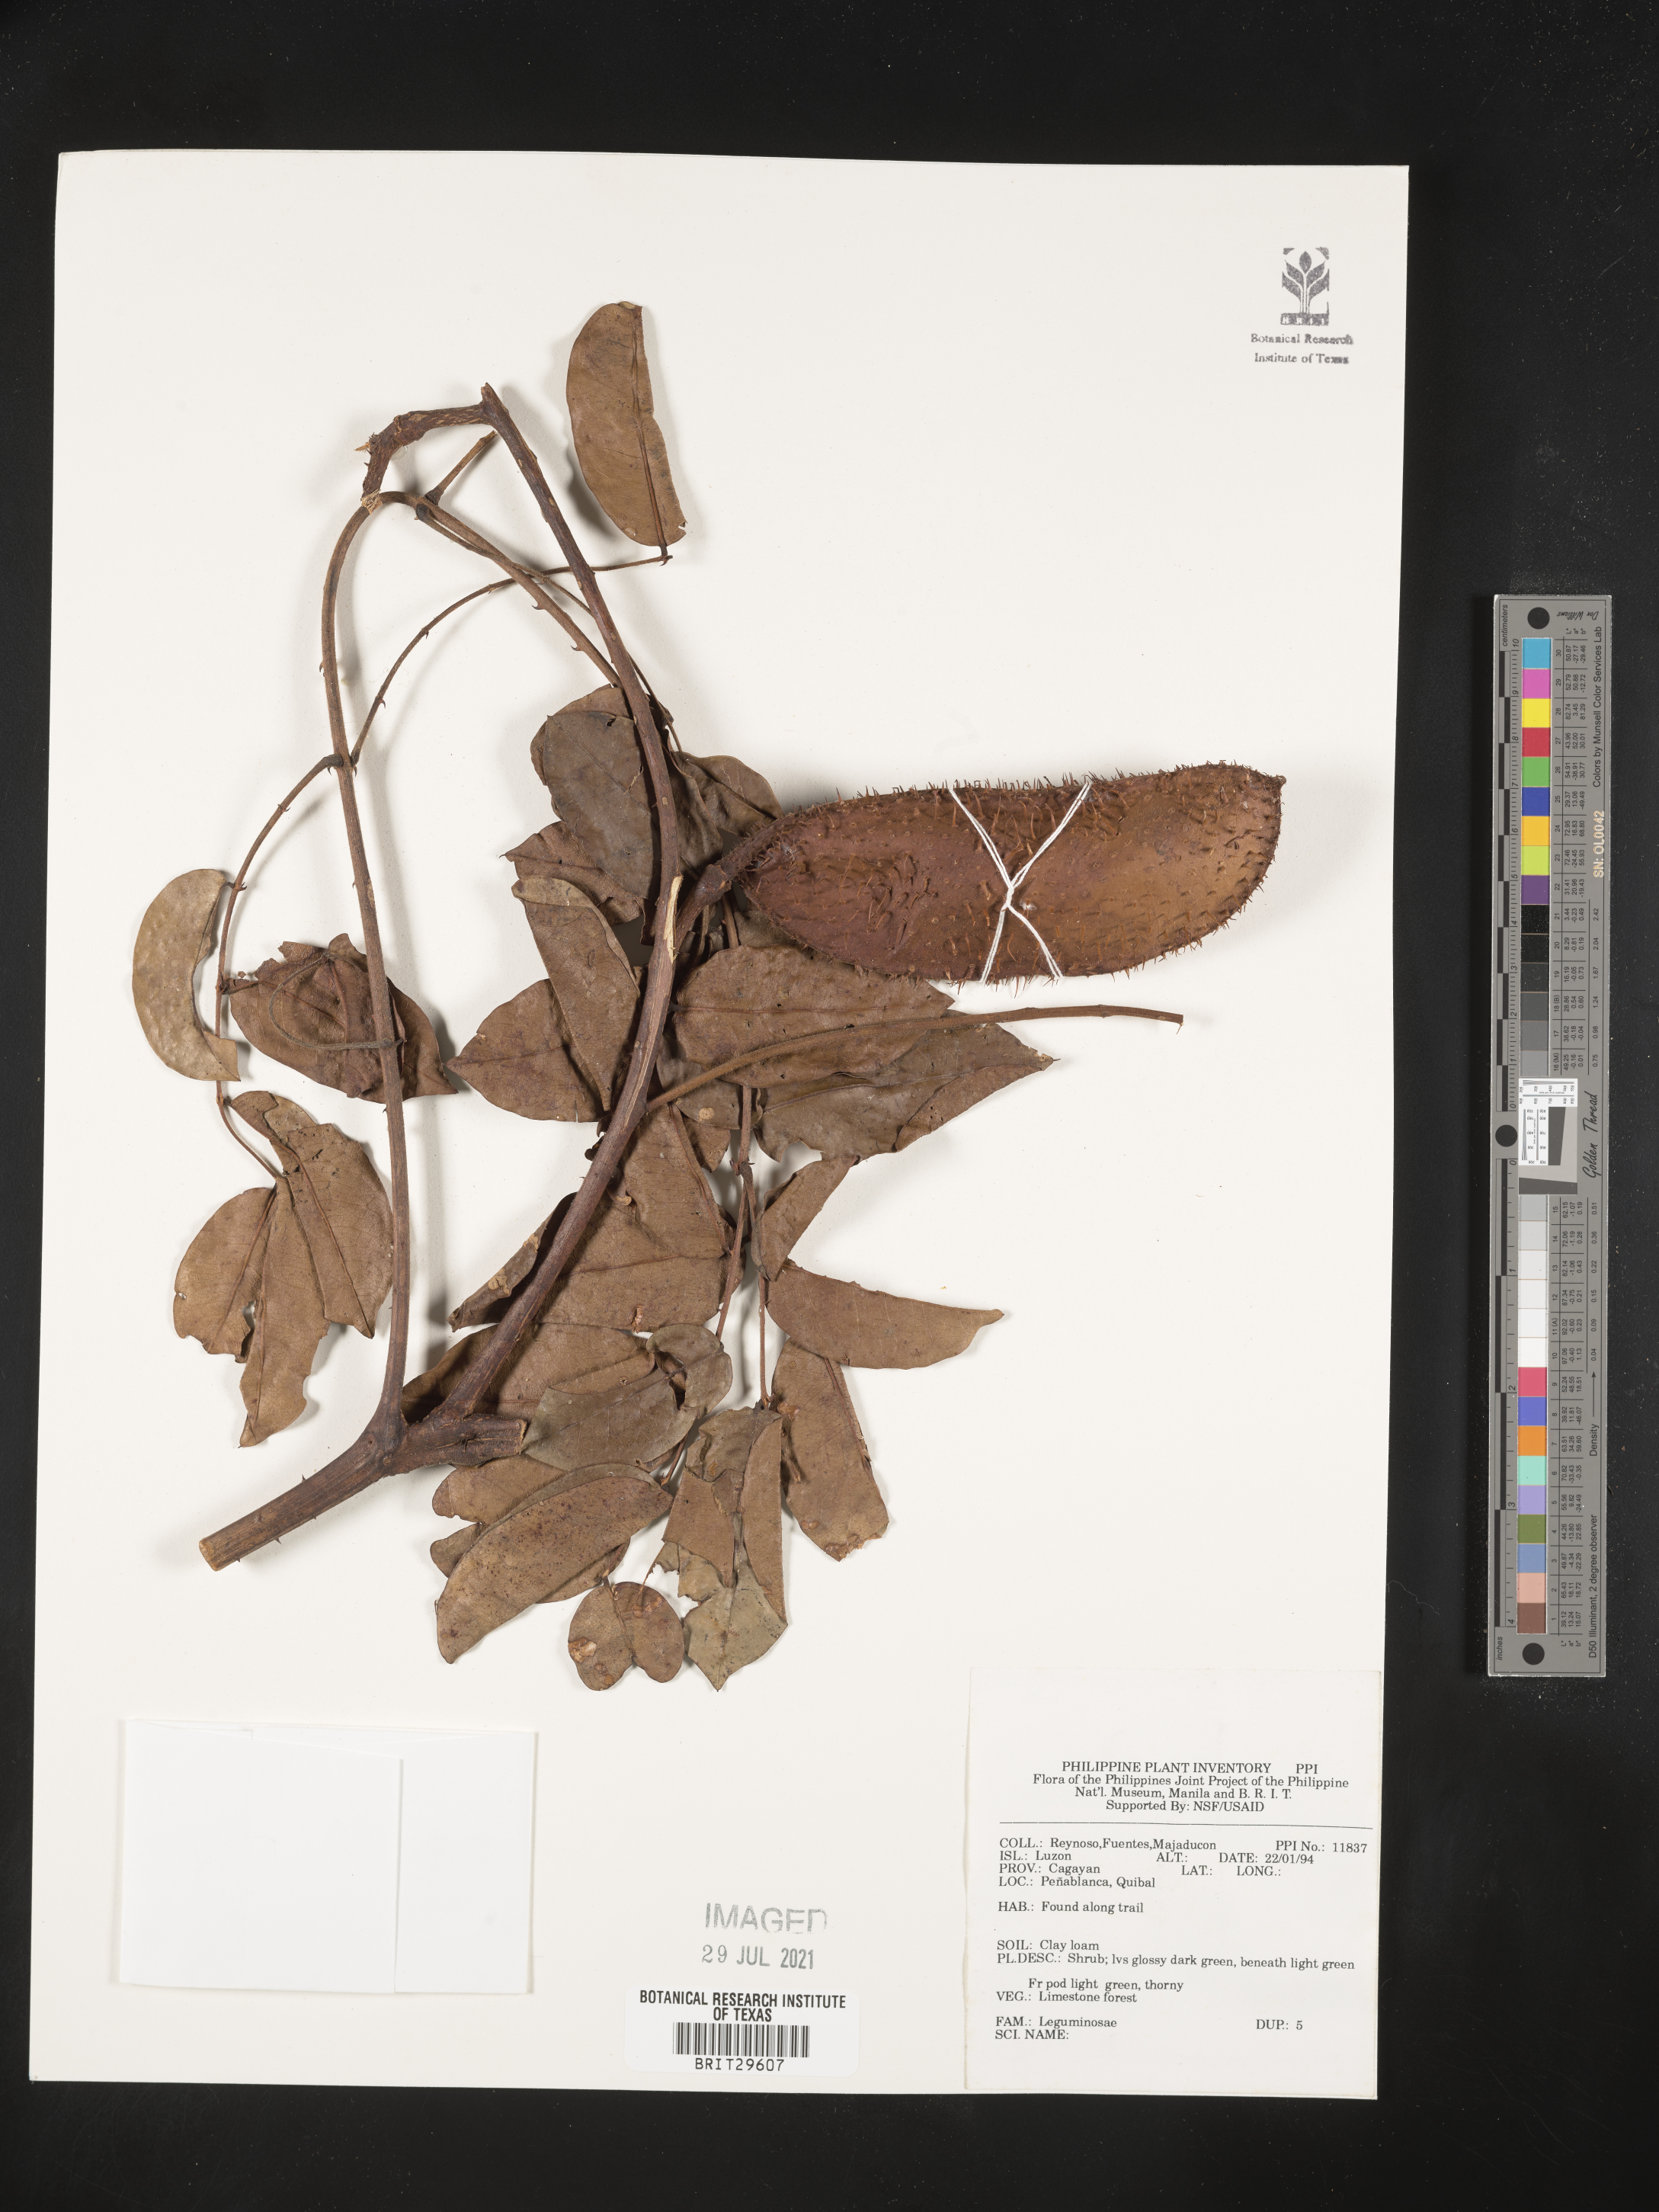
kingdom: Plantae
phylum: Tracheophyta
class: Magnoliopsida
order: Fabales
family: Fabaceae
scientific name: Fabaceae
